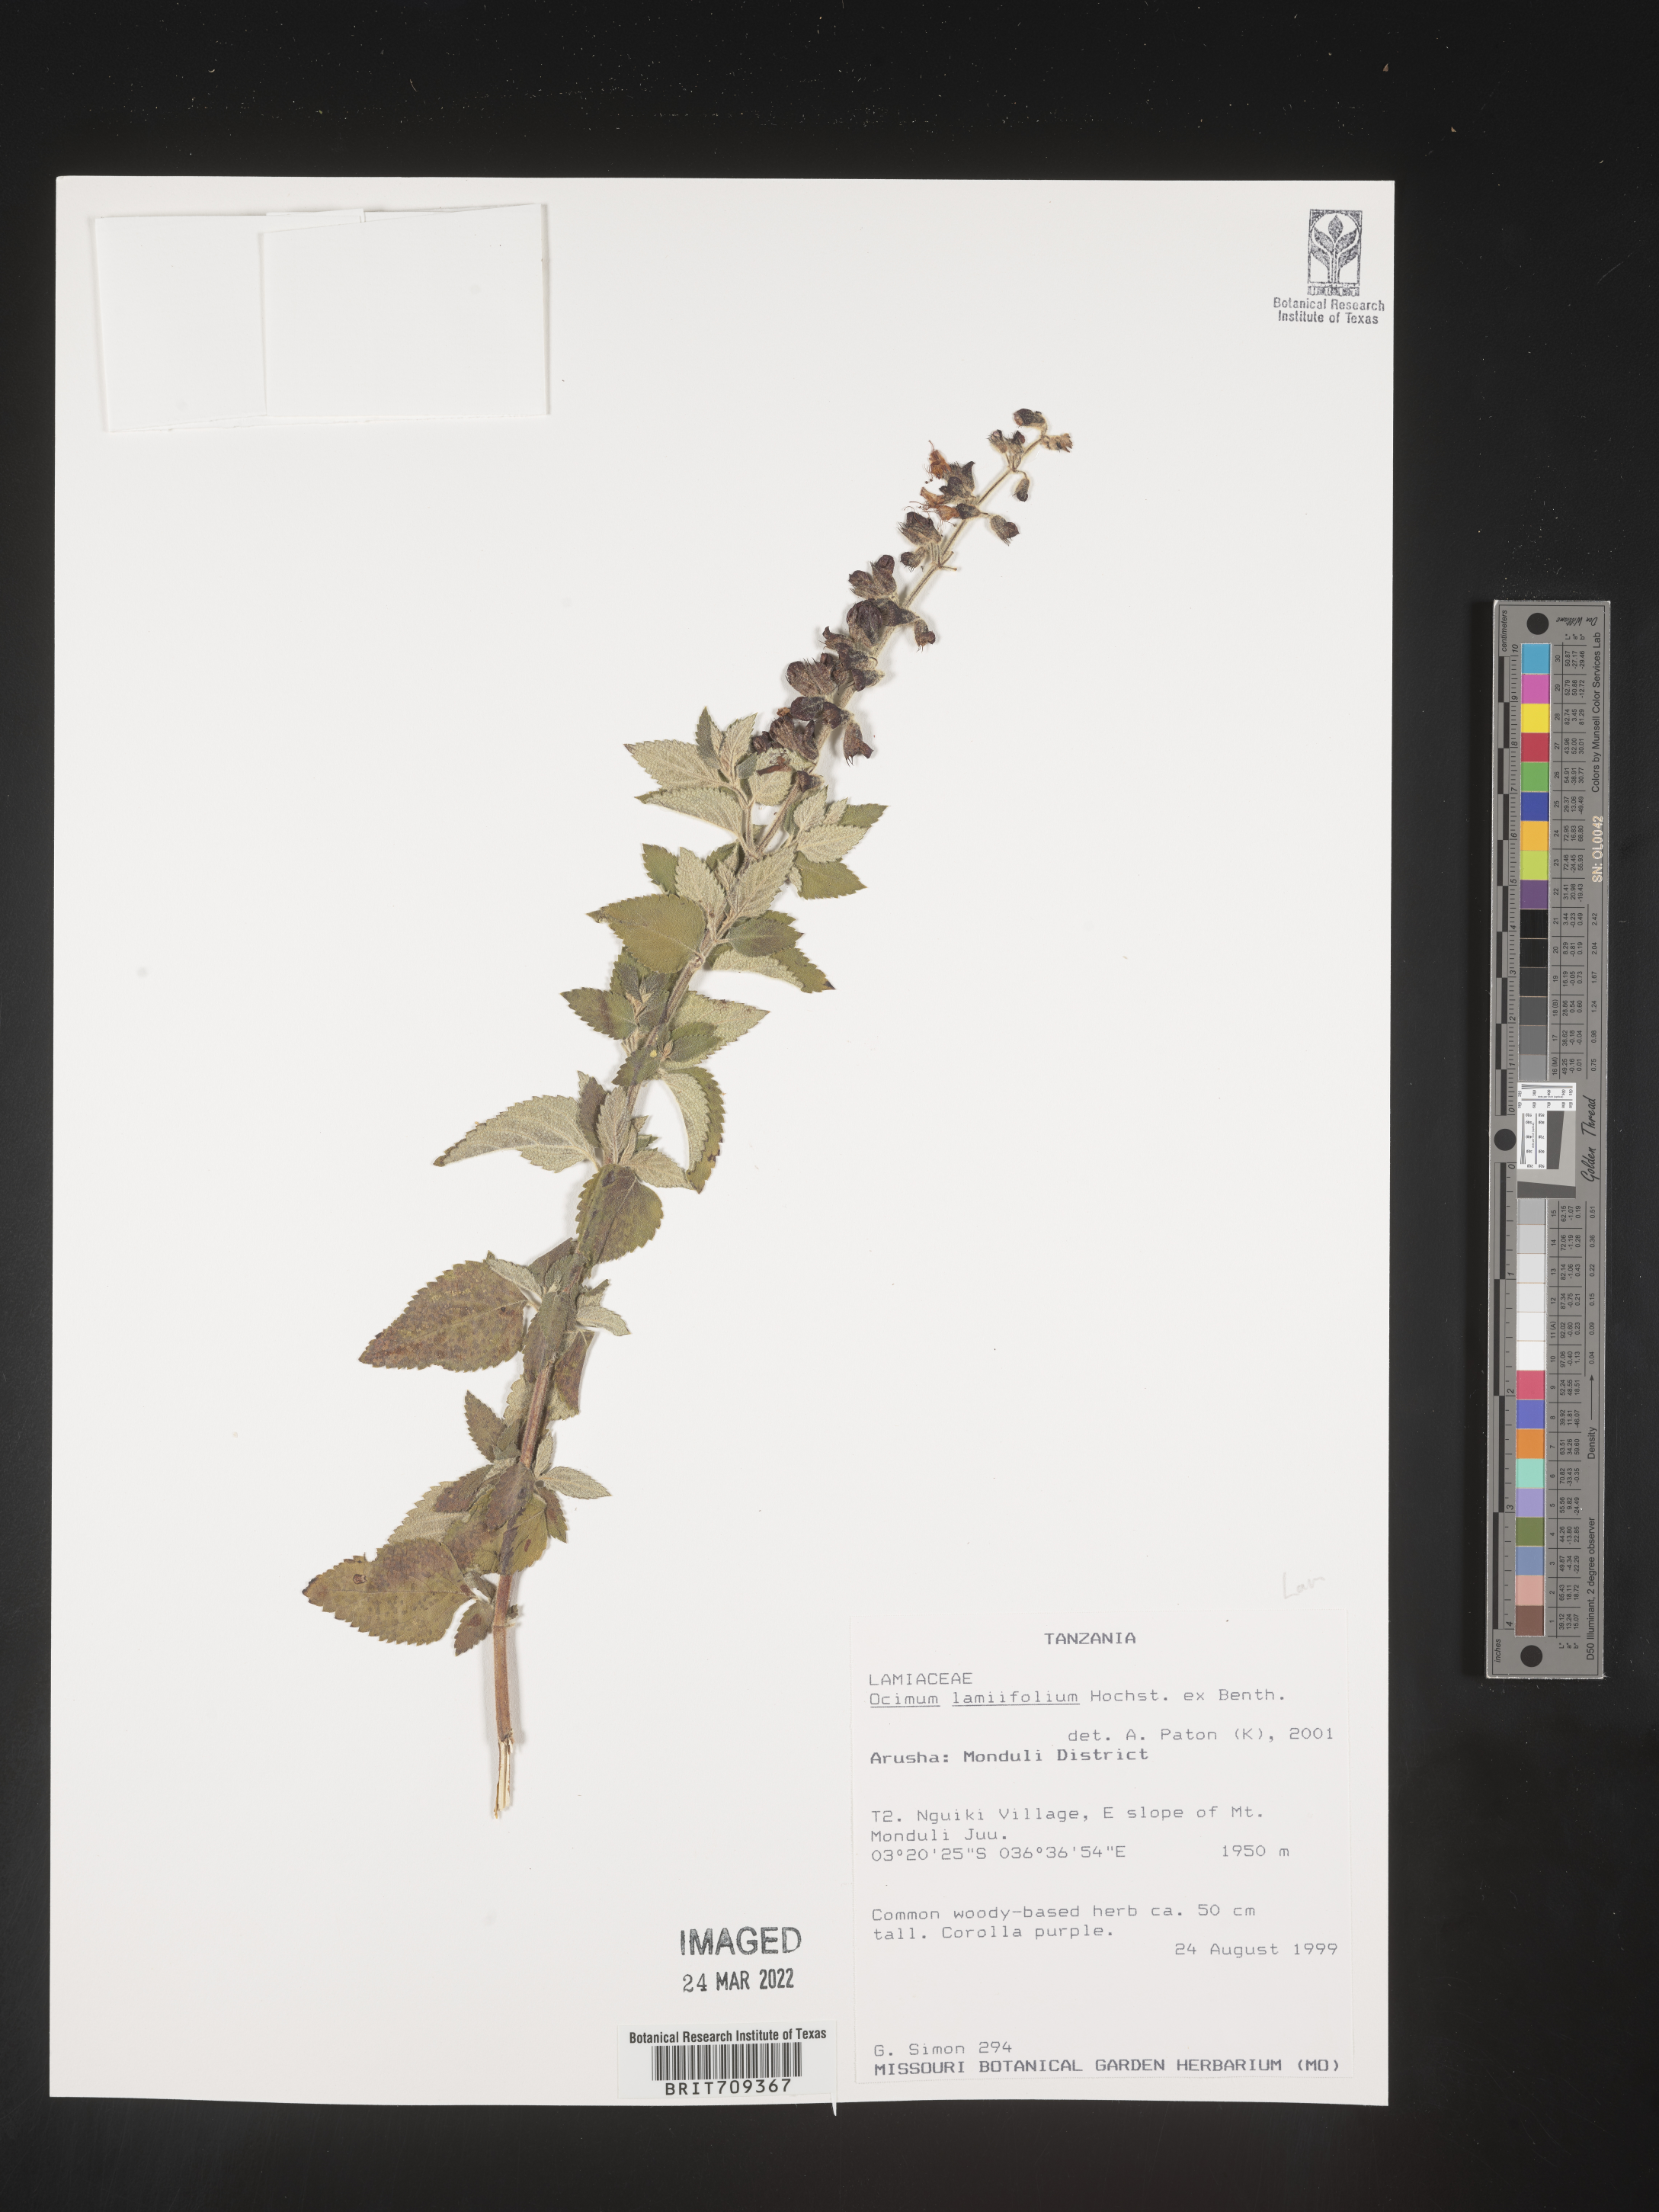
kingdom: Plantae
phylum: Tracheophyta
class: Magnoliopsida
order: Lamiales
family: Lamiaceae
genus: Ocimum
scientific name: Ocimum
